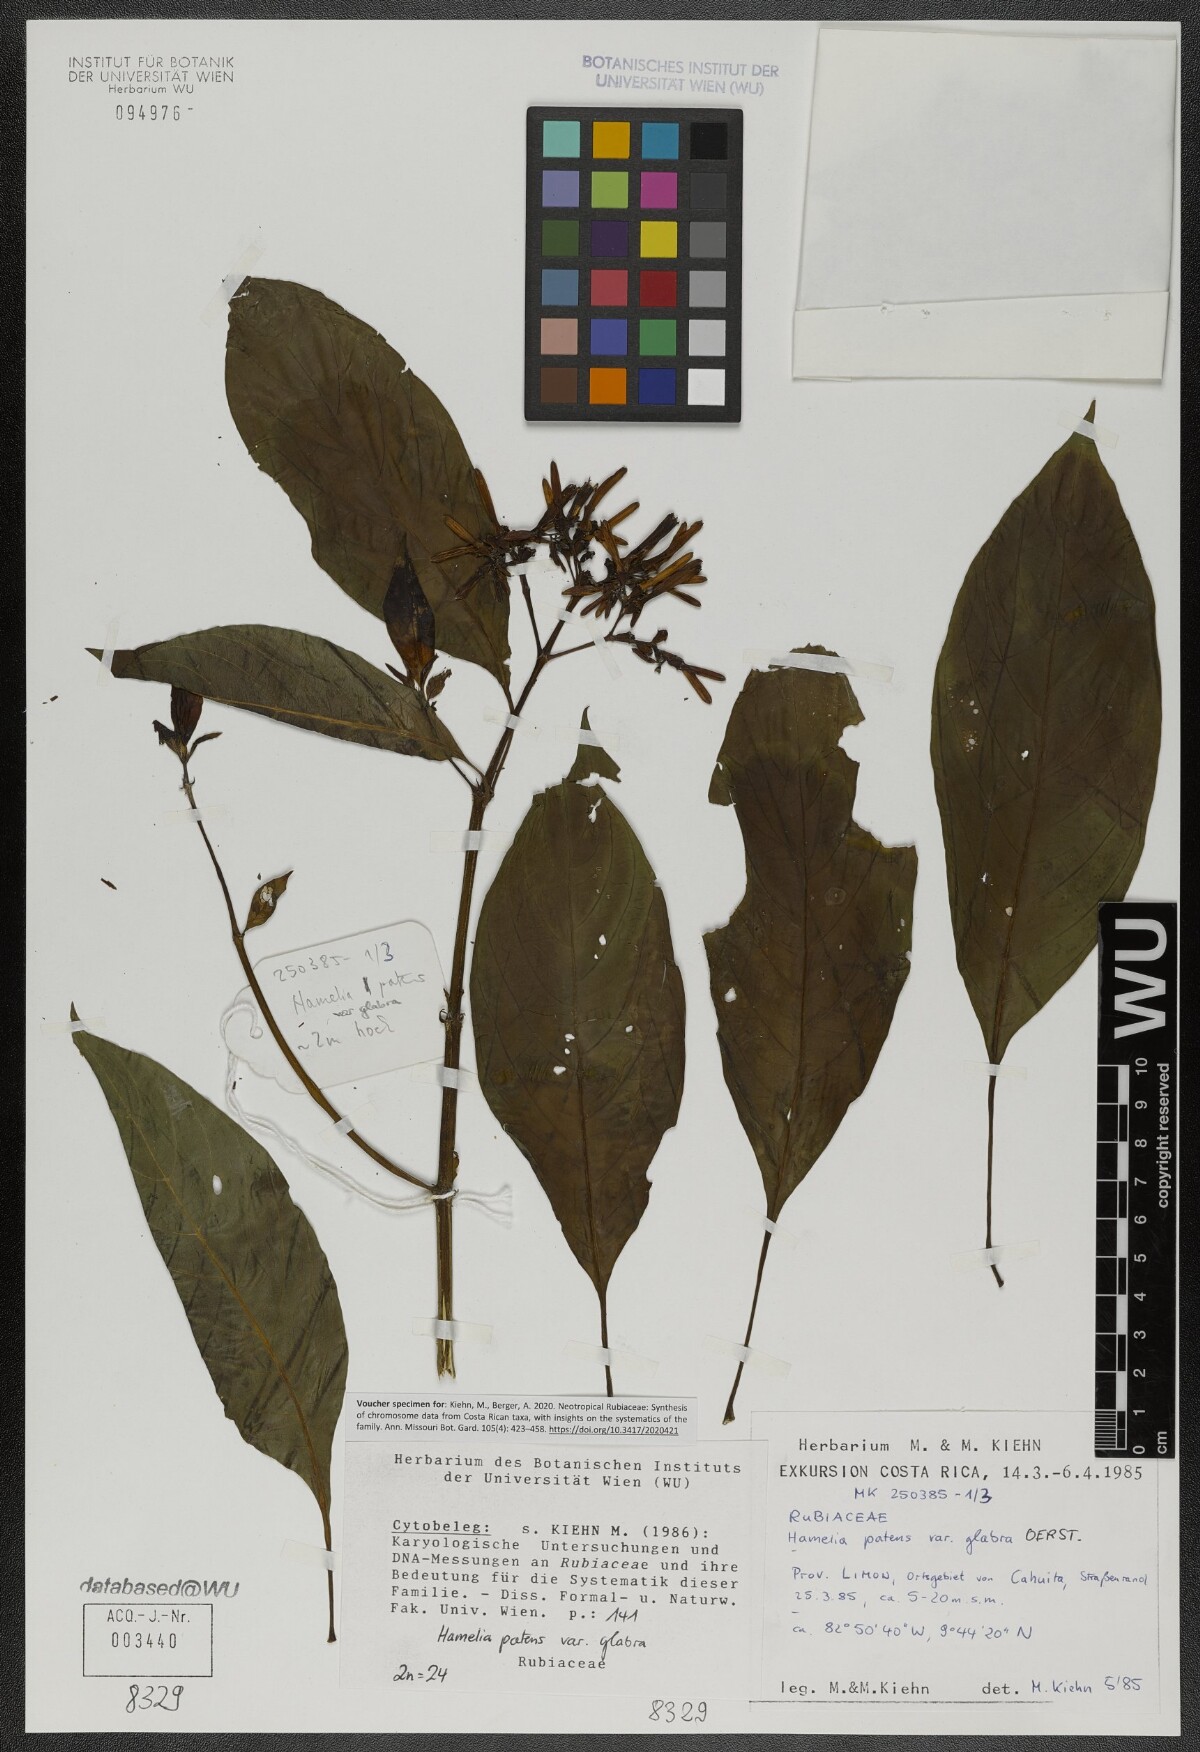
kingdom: Plantae
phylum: Tracheophyta
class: Magnoliopsida
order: Gentianales
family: Rubiaceae
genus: Hamelia
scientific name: Hamelia patens
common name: Redhead
